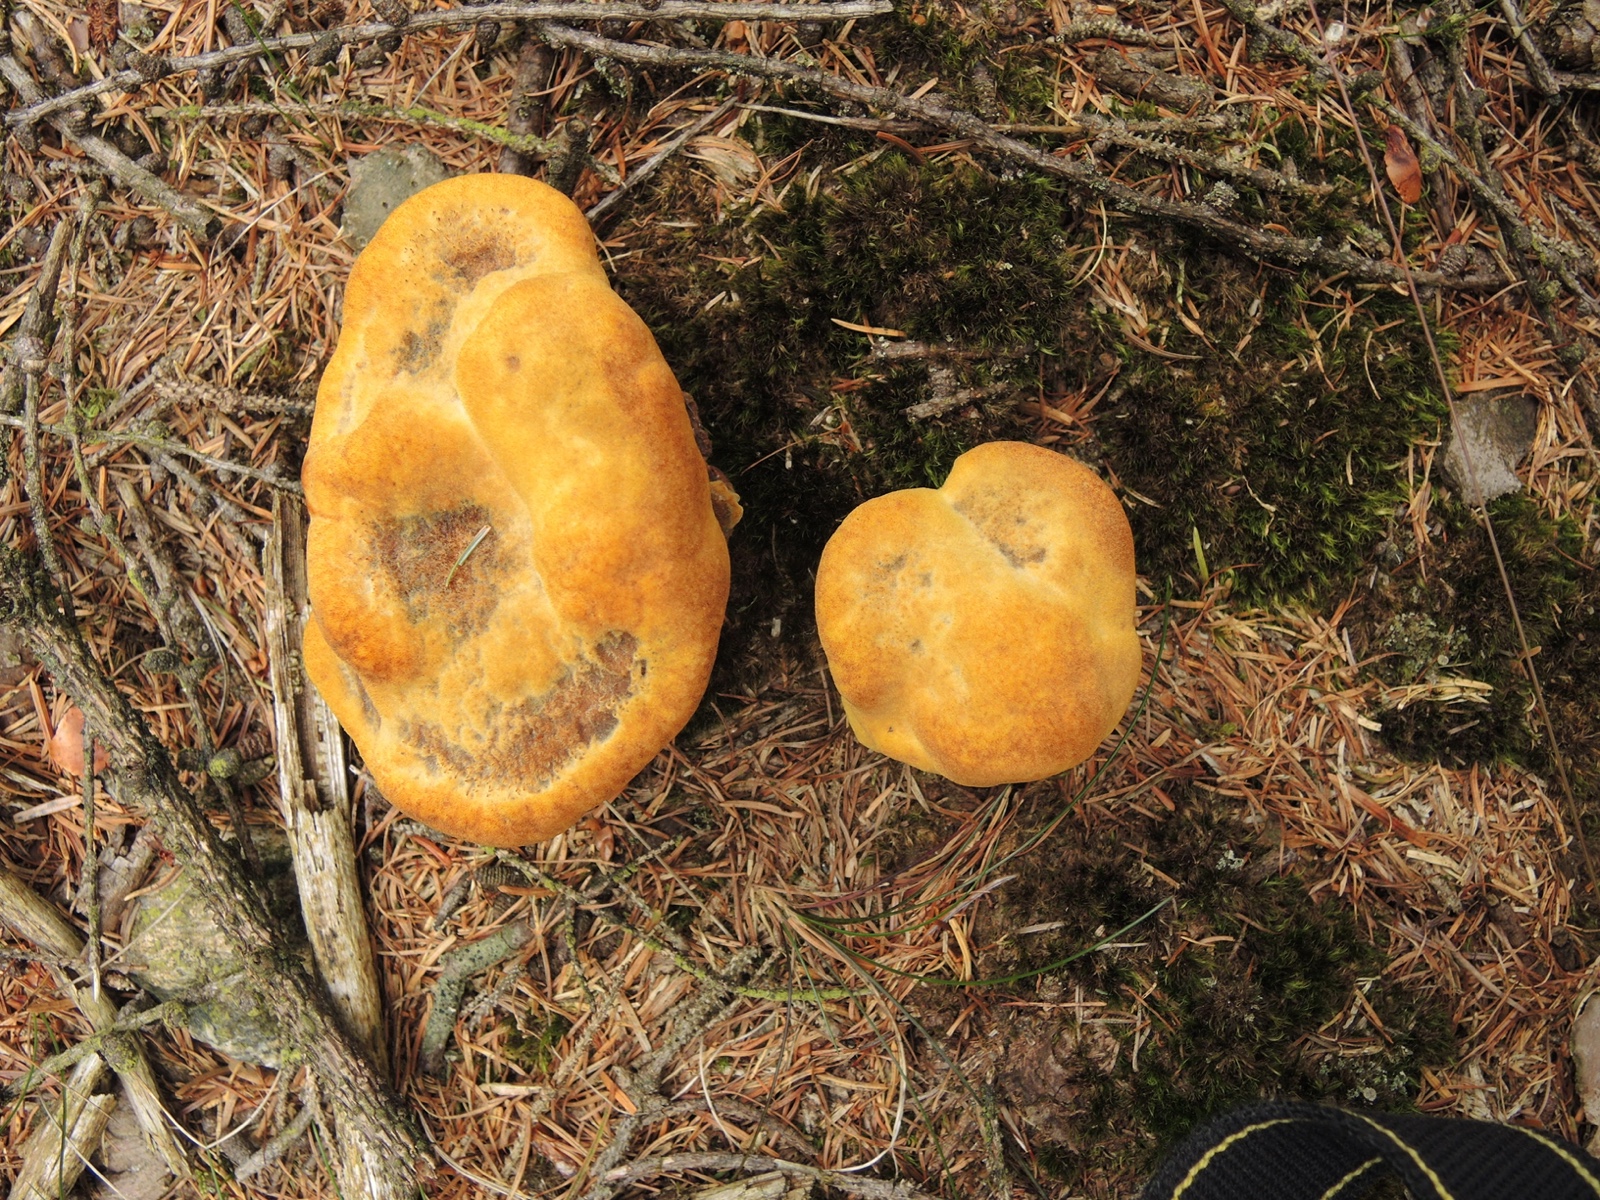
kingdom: Fungi
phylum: Basidiomycota
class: Agaricomycetes
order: Polyporales
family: Laetiporaceae
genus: Phaeolus
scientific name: Phaeolus schweinitzii
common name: brunporesvamp
